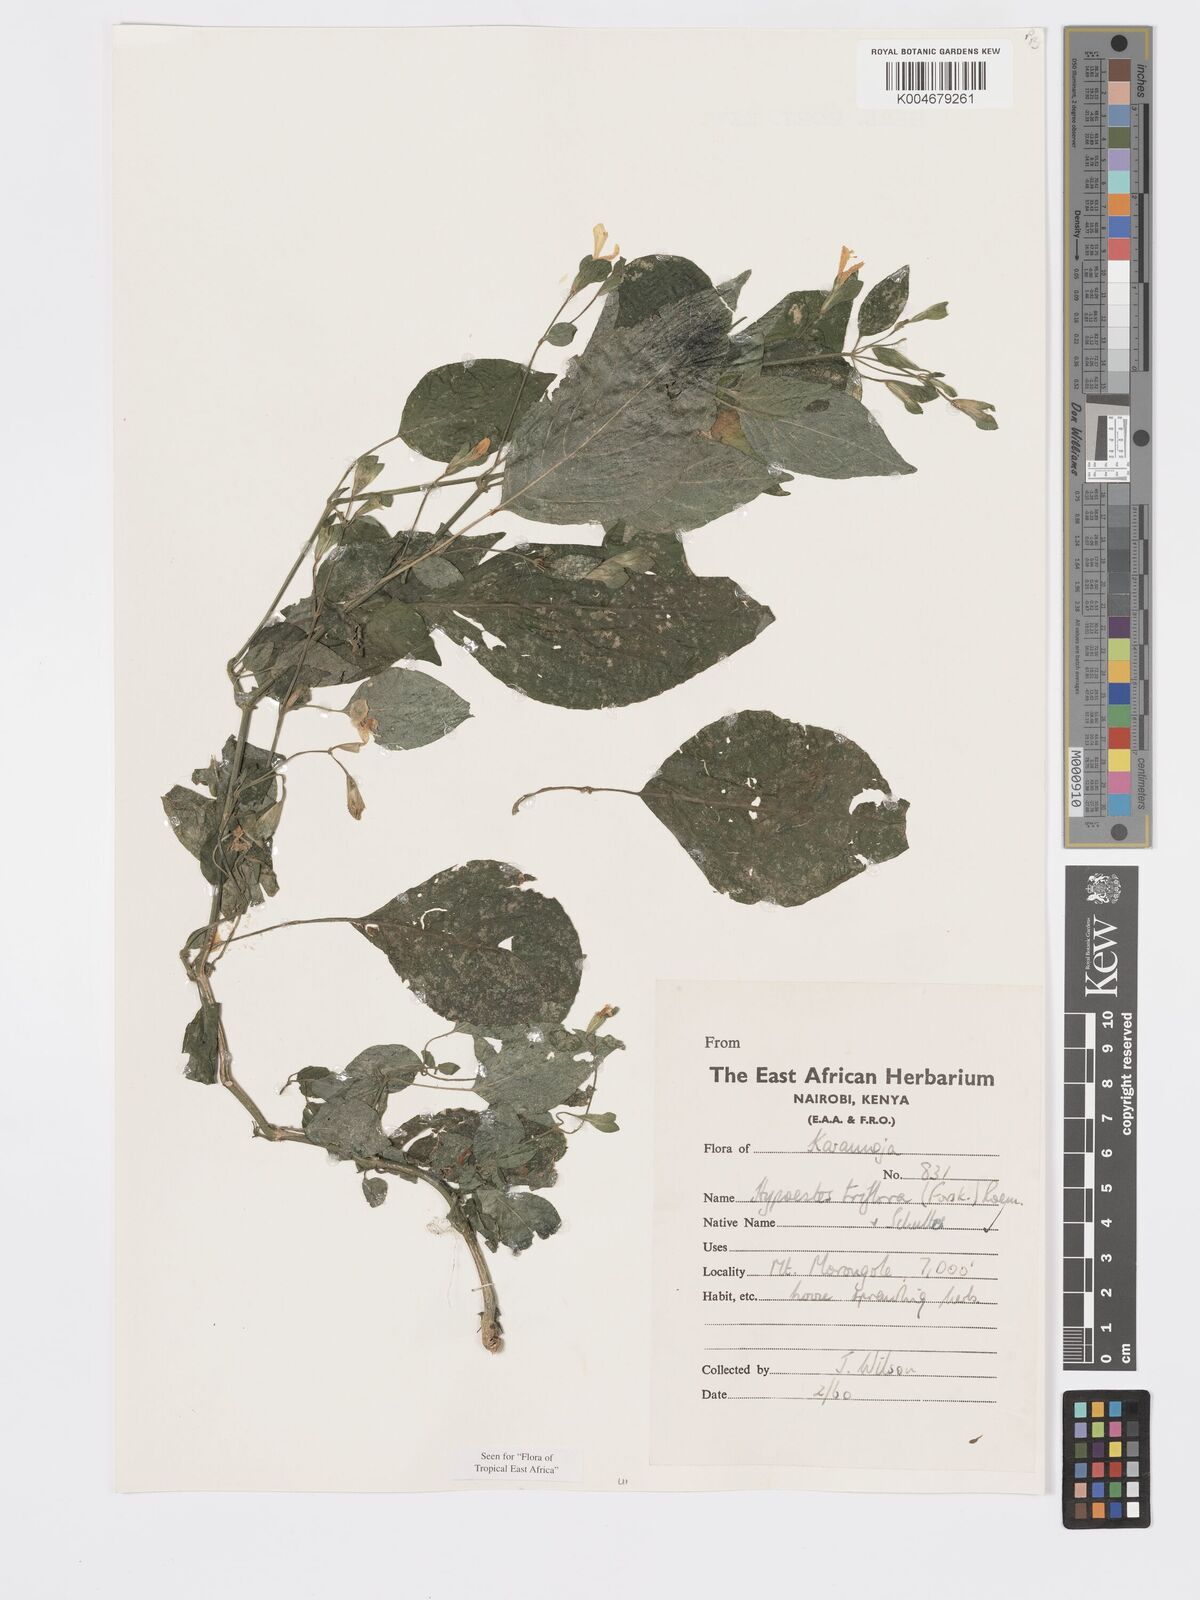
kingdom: Plantae
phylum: Tracheophyta
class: Magnoliopsida
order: Lamiales
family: Acanthaceae
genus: Hypoestes
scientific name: Hypoestes triflora
